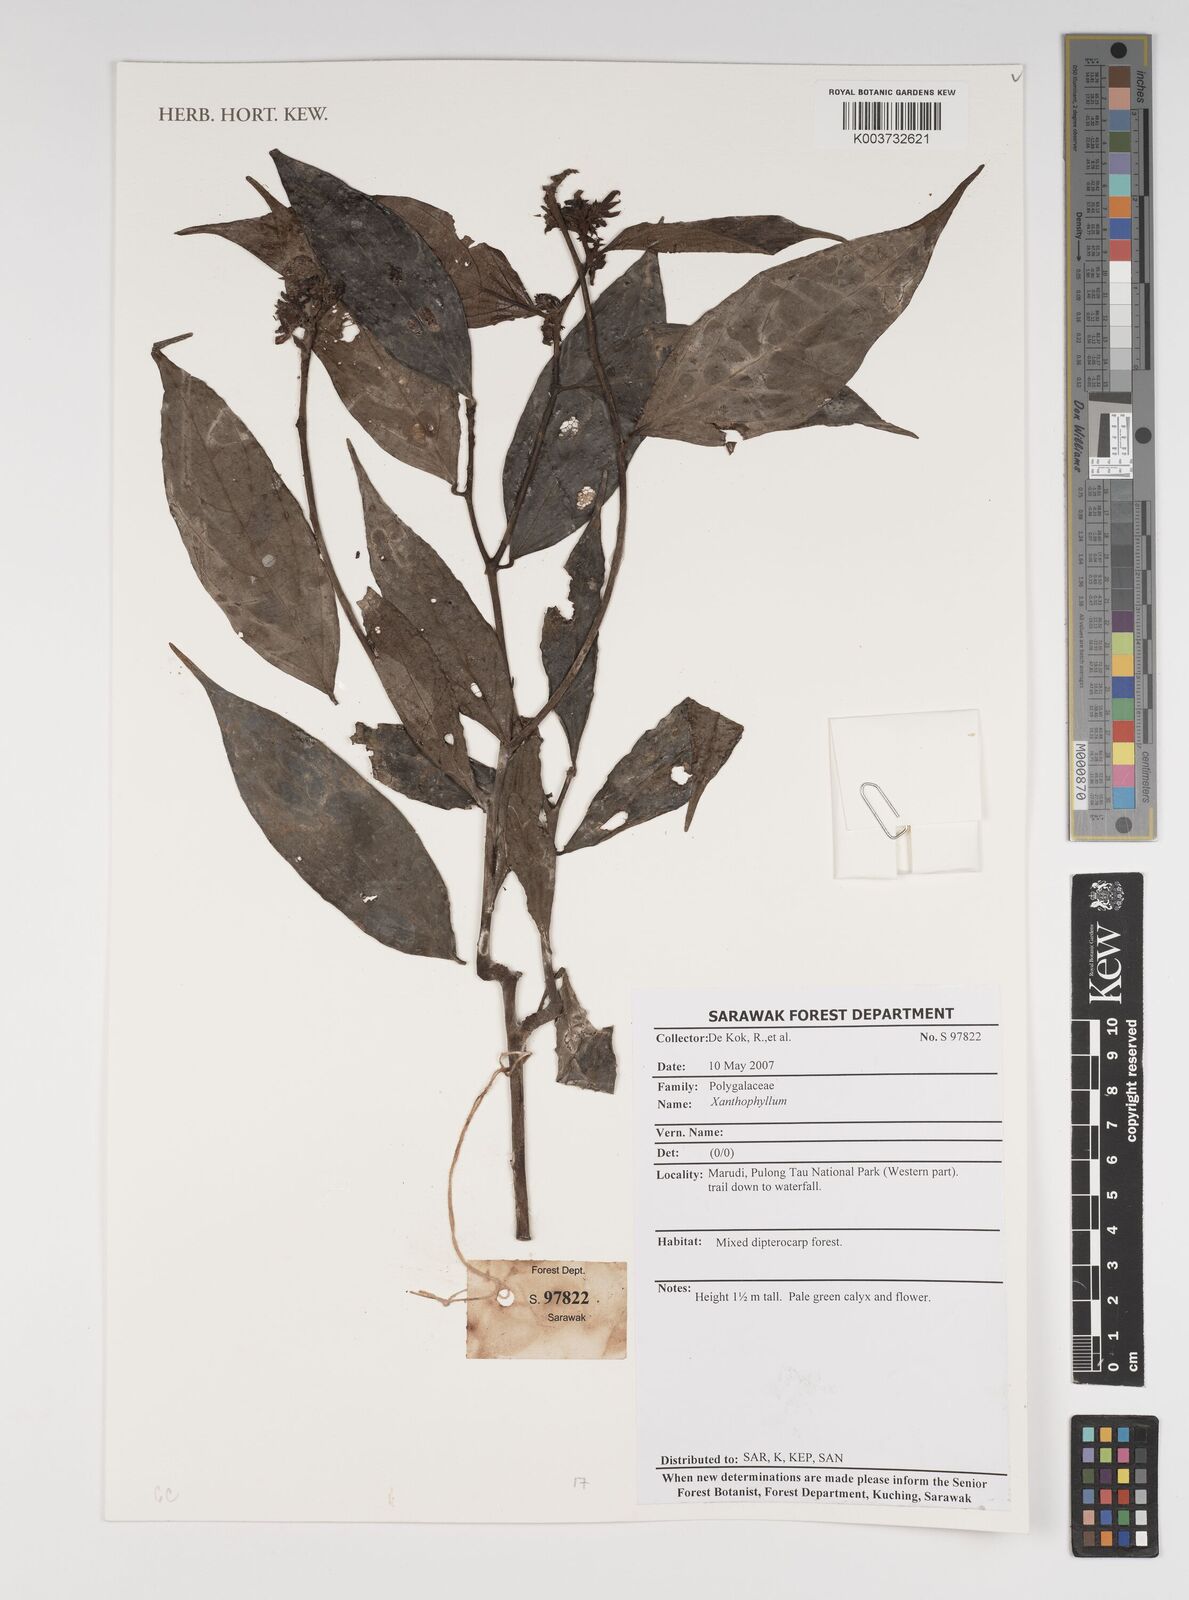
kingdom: Plantae
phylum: Tracheophyta
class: Magnoliopsida
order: Fabales
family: Polygalaceae
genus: Xanthophyllum
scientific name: Xanthophyllum
